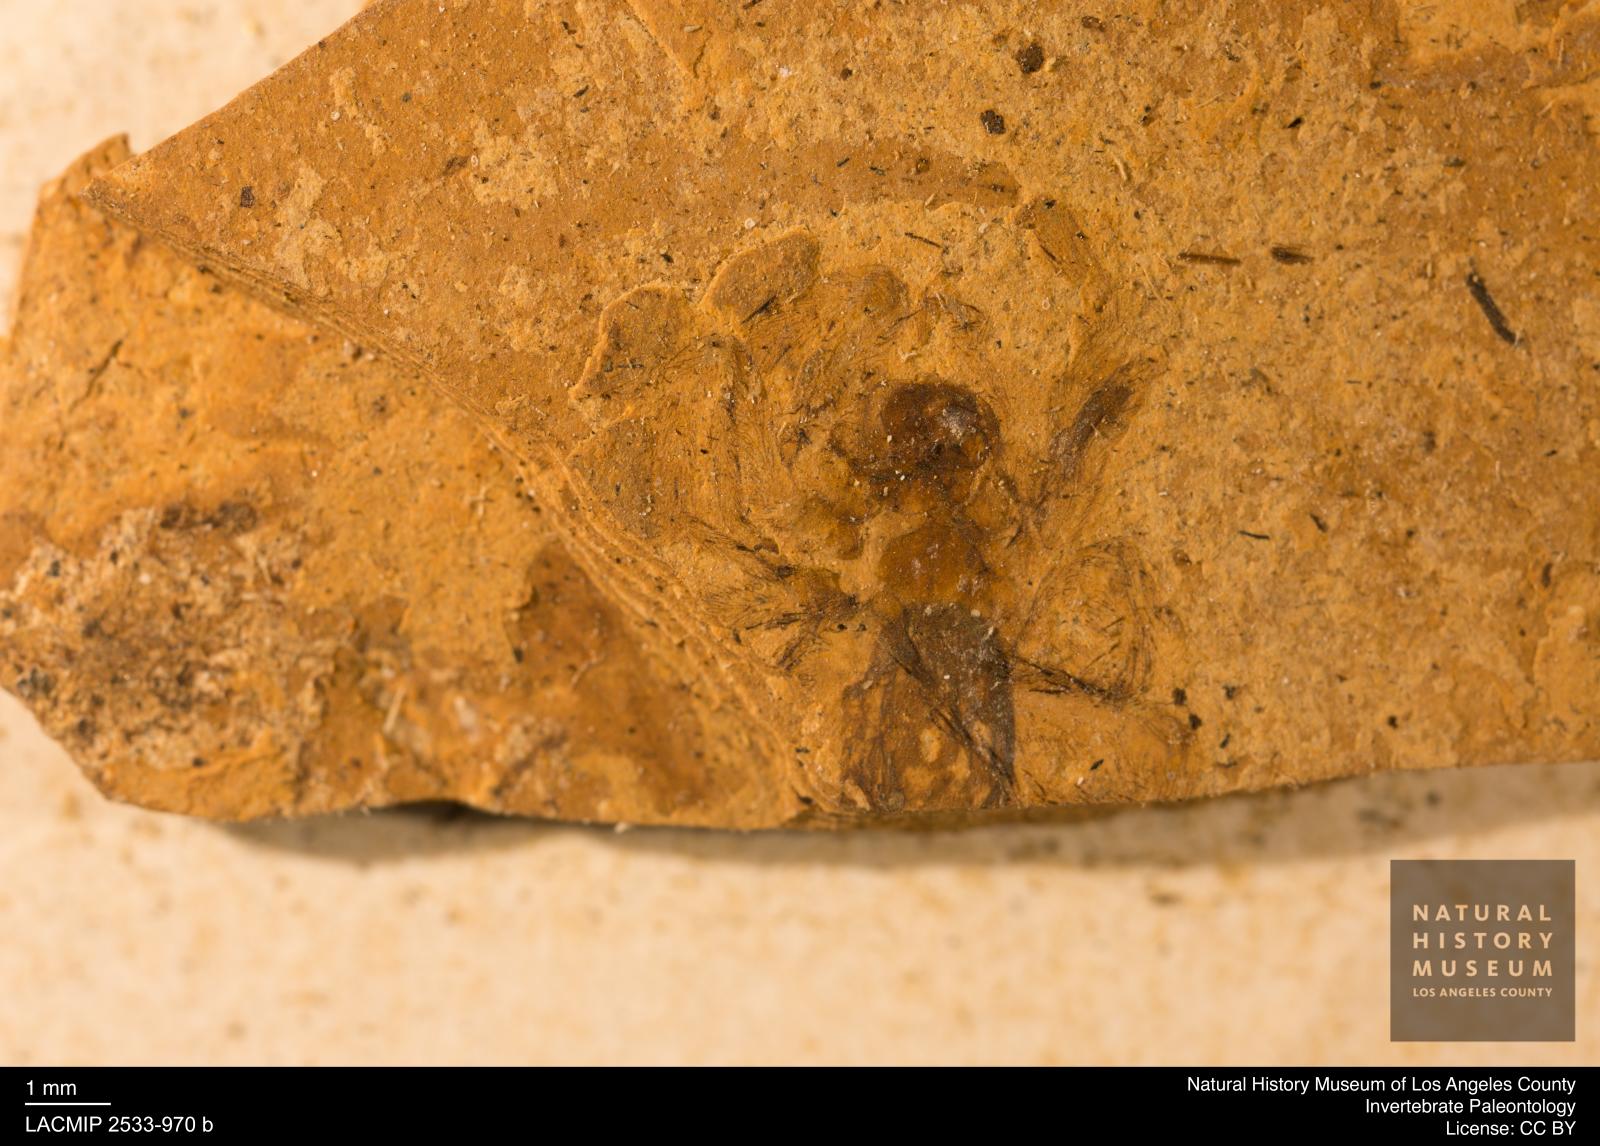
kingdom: Animalia
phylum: Arthropoda
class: Arachnida
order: Araneae
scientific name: Araneae
